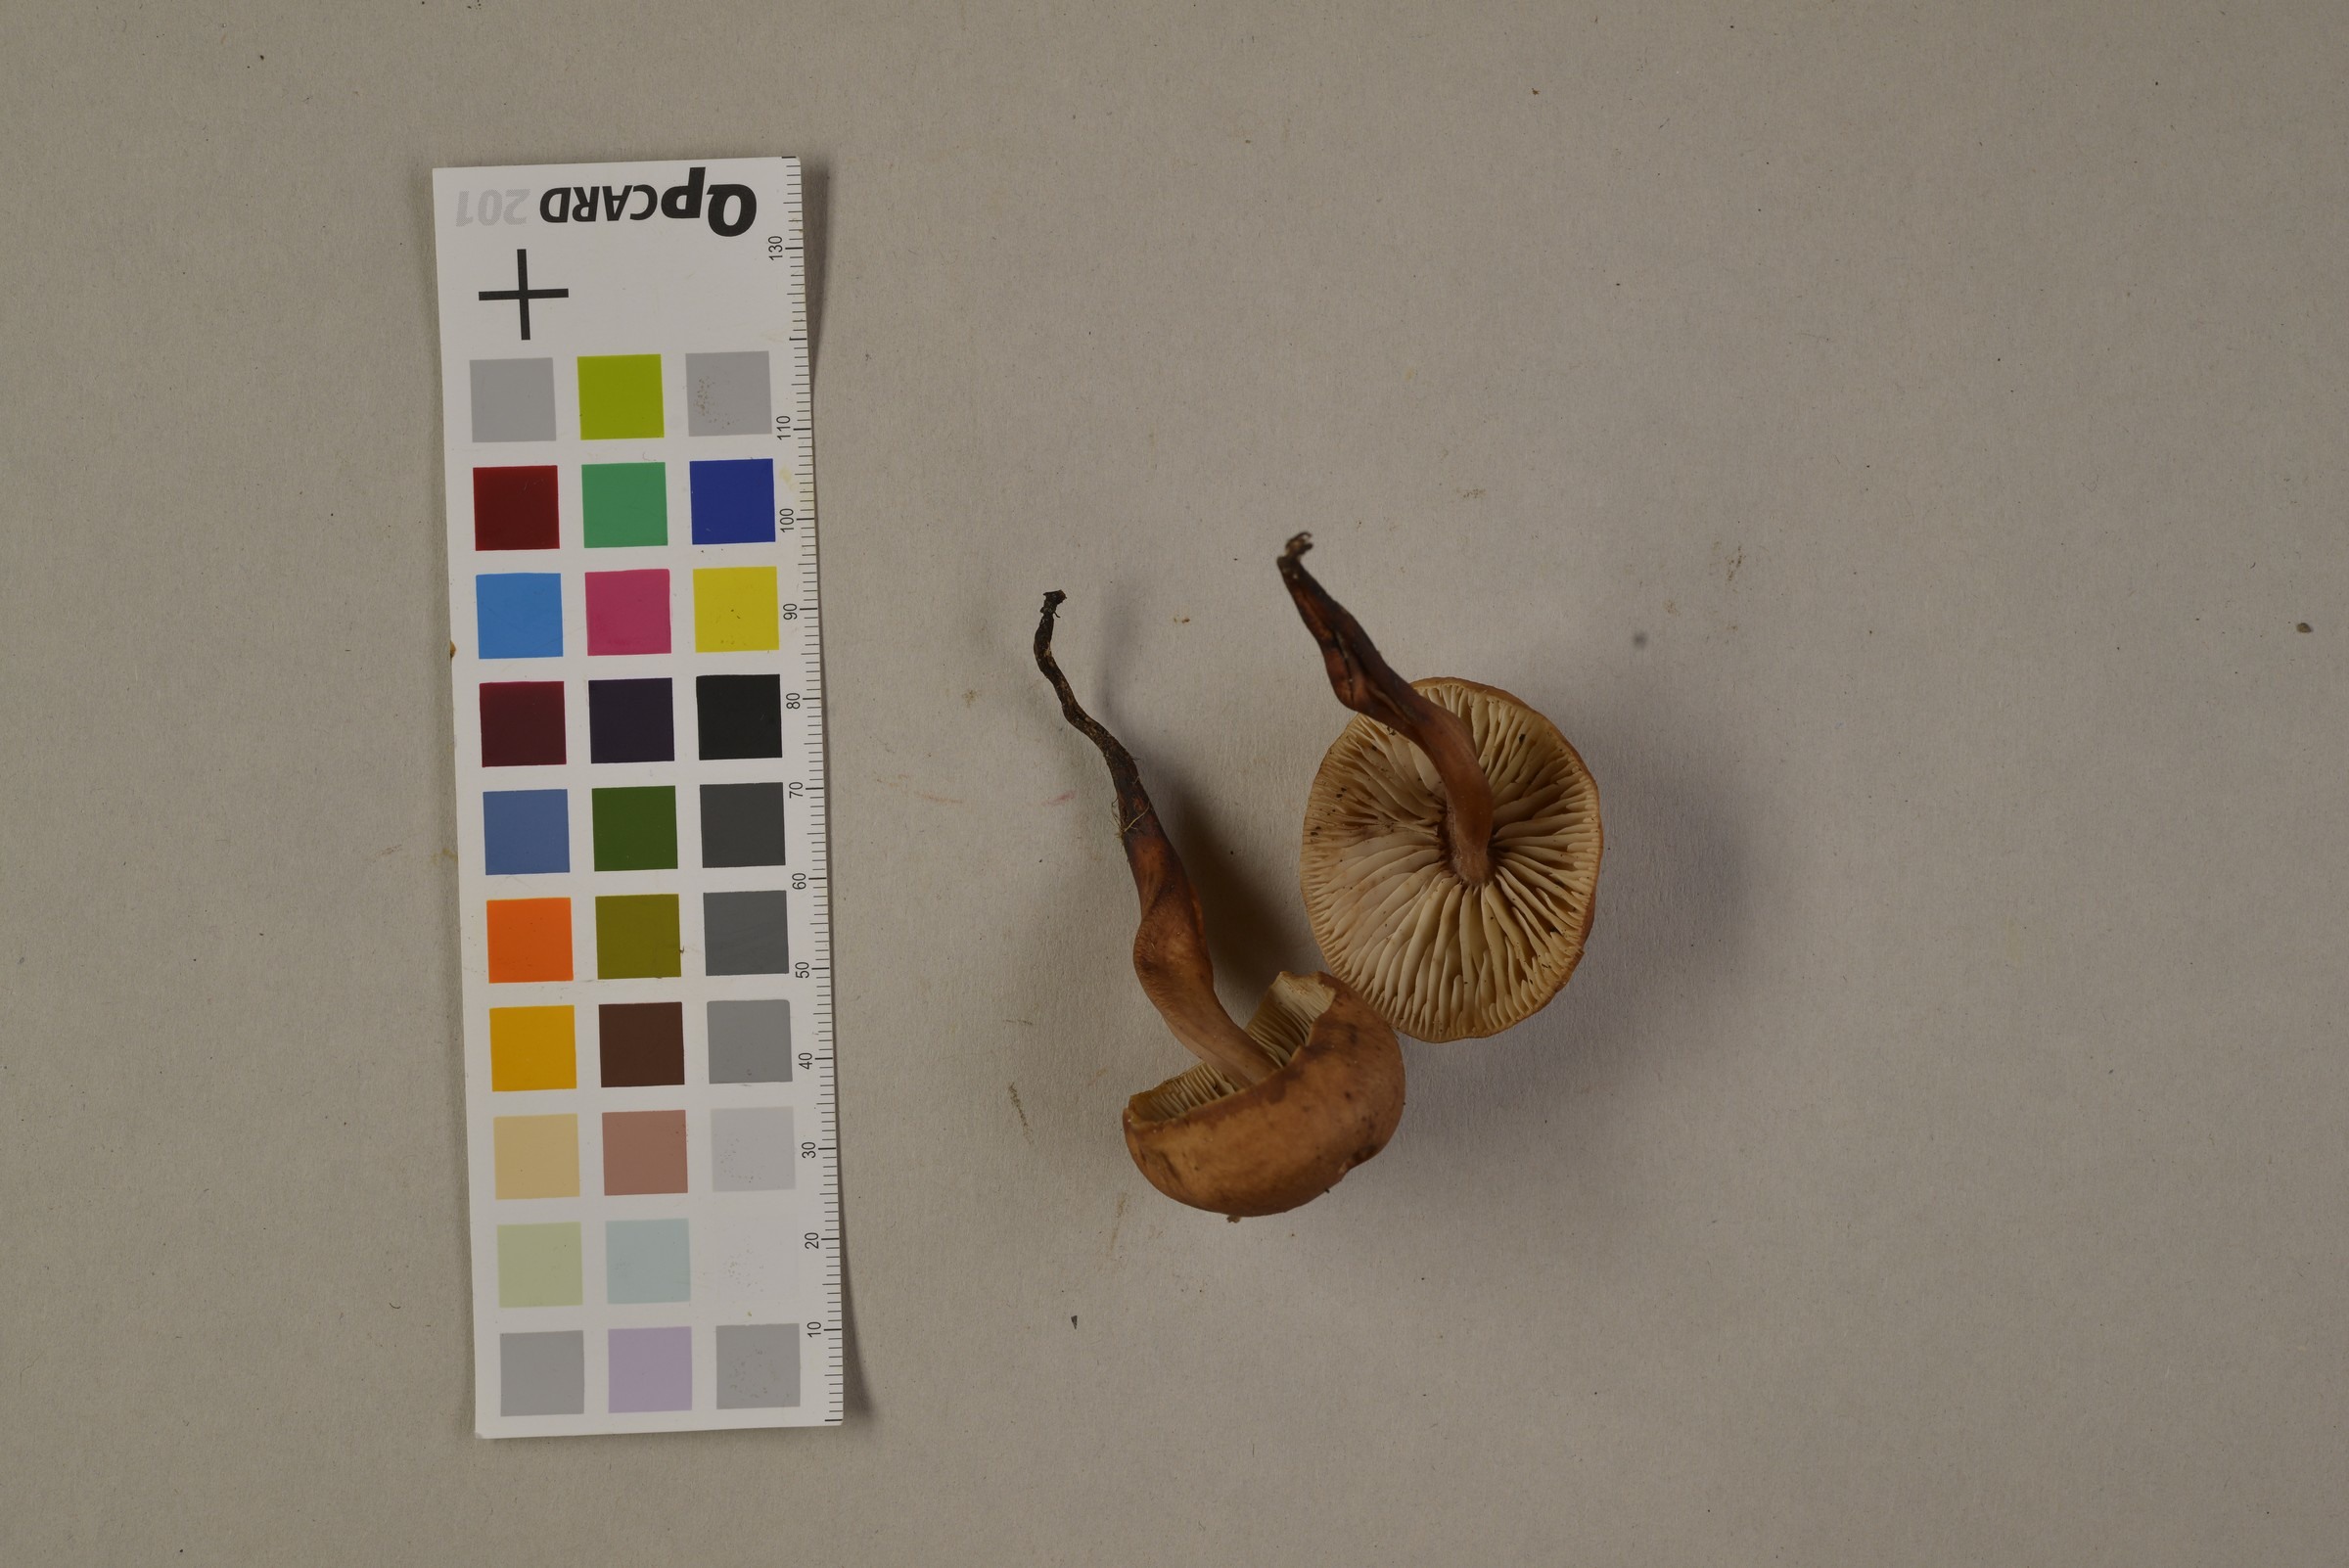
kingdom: Fungi
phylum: Basidiomycota
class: Agaricomycetes
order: Agaricales
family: Omphalotaceae
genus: Gymnopus
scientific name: Gymnopus fusipes
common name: Spindle shank
